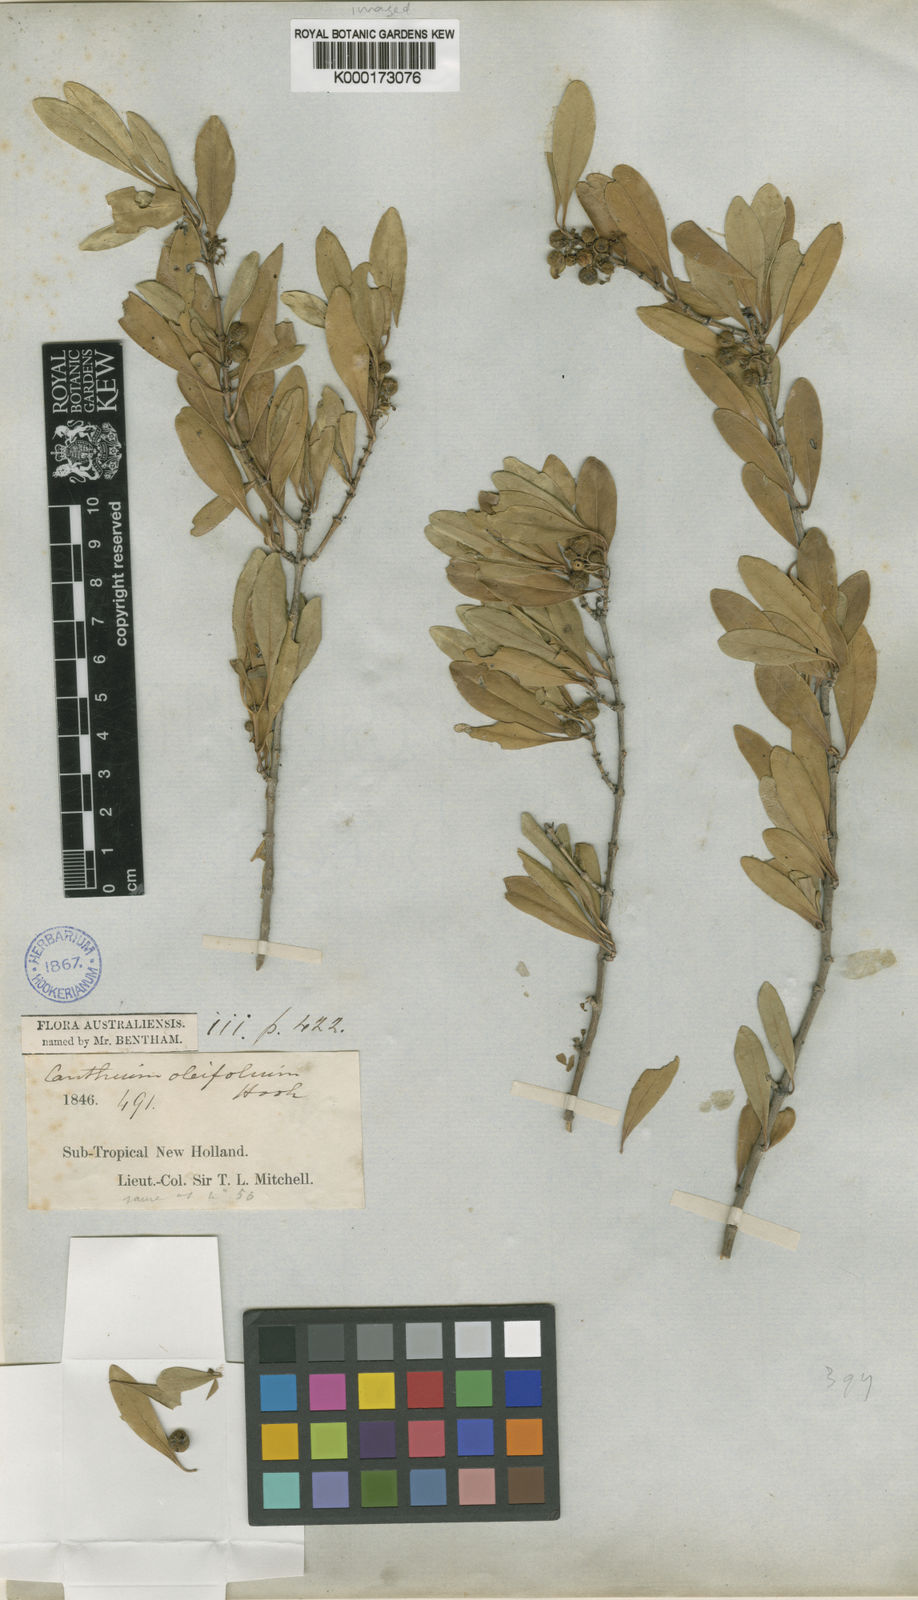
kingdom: Plantae
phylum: Tracheophyta
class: Magnoliopsida
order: Gentianales
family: Rubiaceae
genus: Psydrax
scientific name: Psydrax oleifolius
